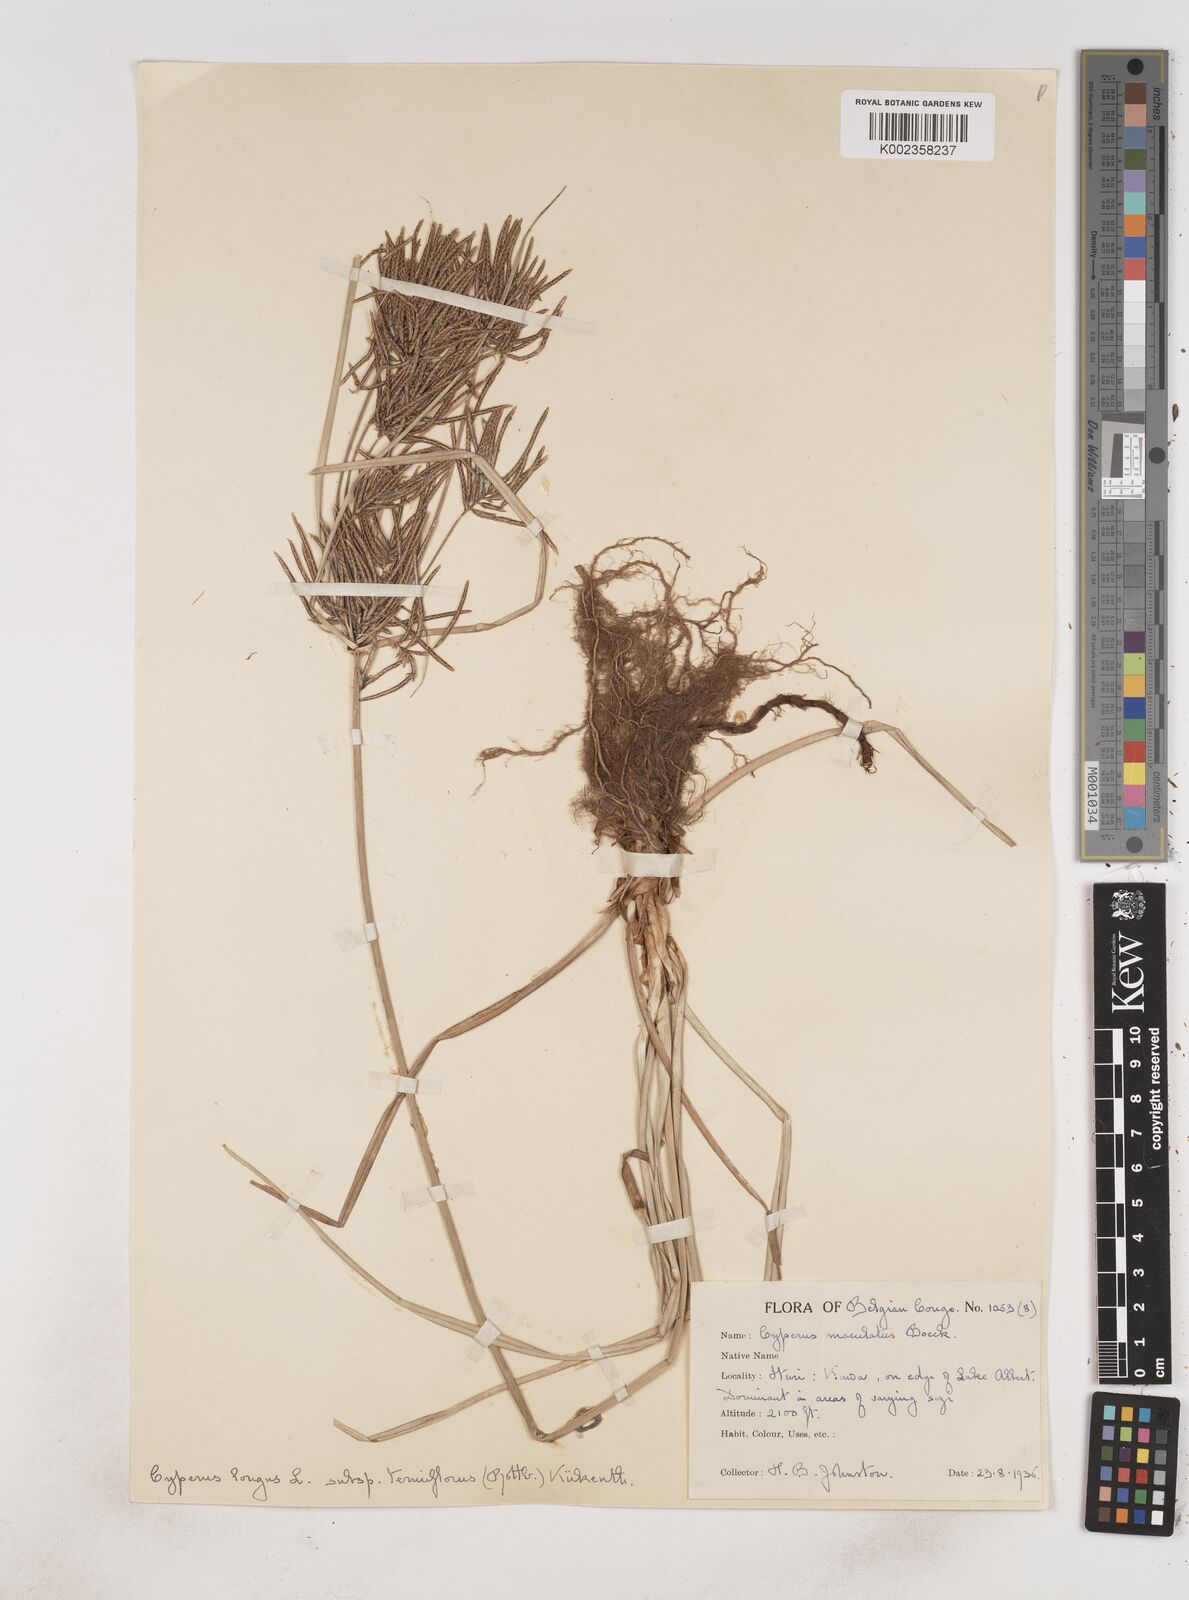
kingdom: Plantae
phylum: Tracheophyta
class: Liliopsida
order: Poales
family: Cyperaceae
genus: Cyperus
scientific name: Cyperus maculatus
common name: Maculated sedge
